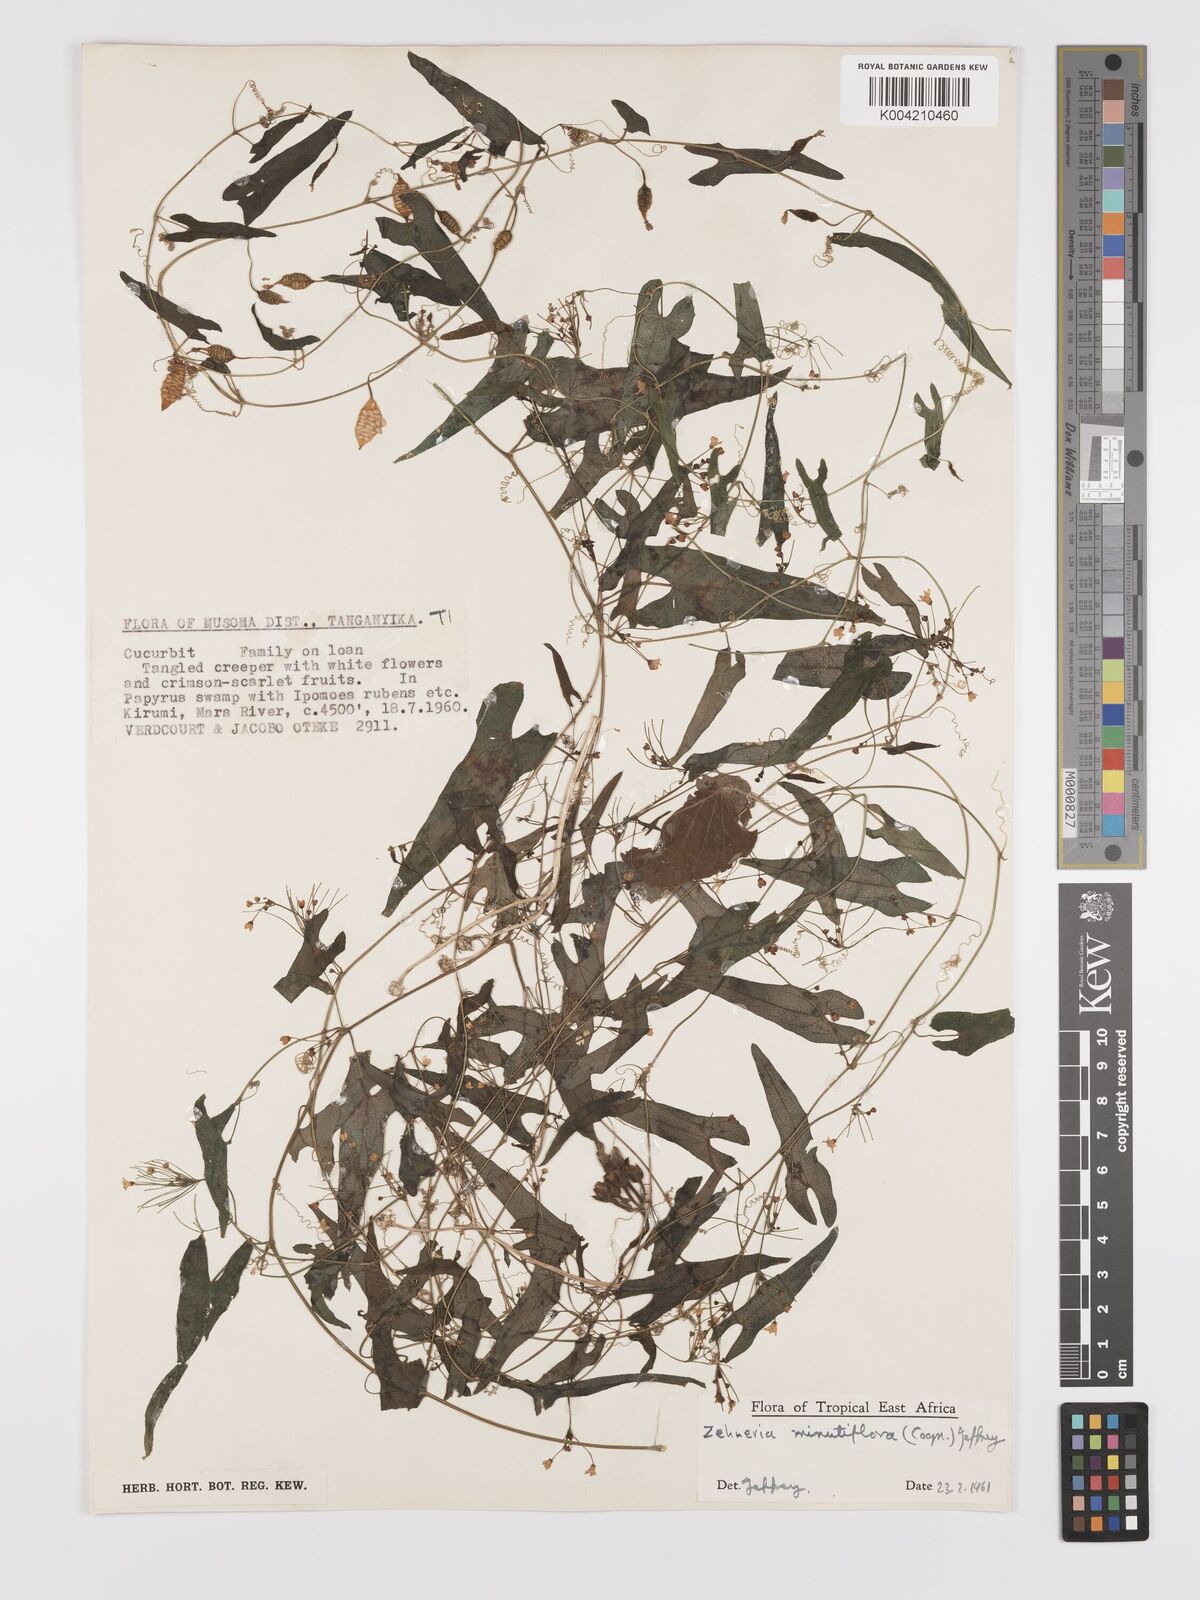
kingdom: Plantae
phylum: Tracheophyta
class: Magnoliopsida
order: Cucurbitales
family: Cucurbitaceae
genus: Zehneria
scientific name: Zehneria minutiflora
